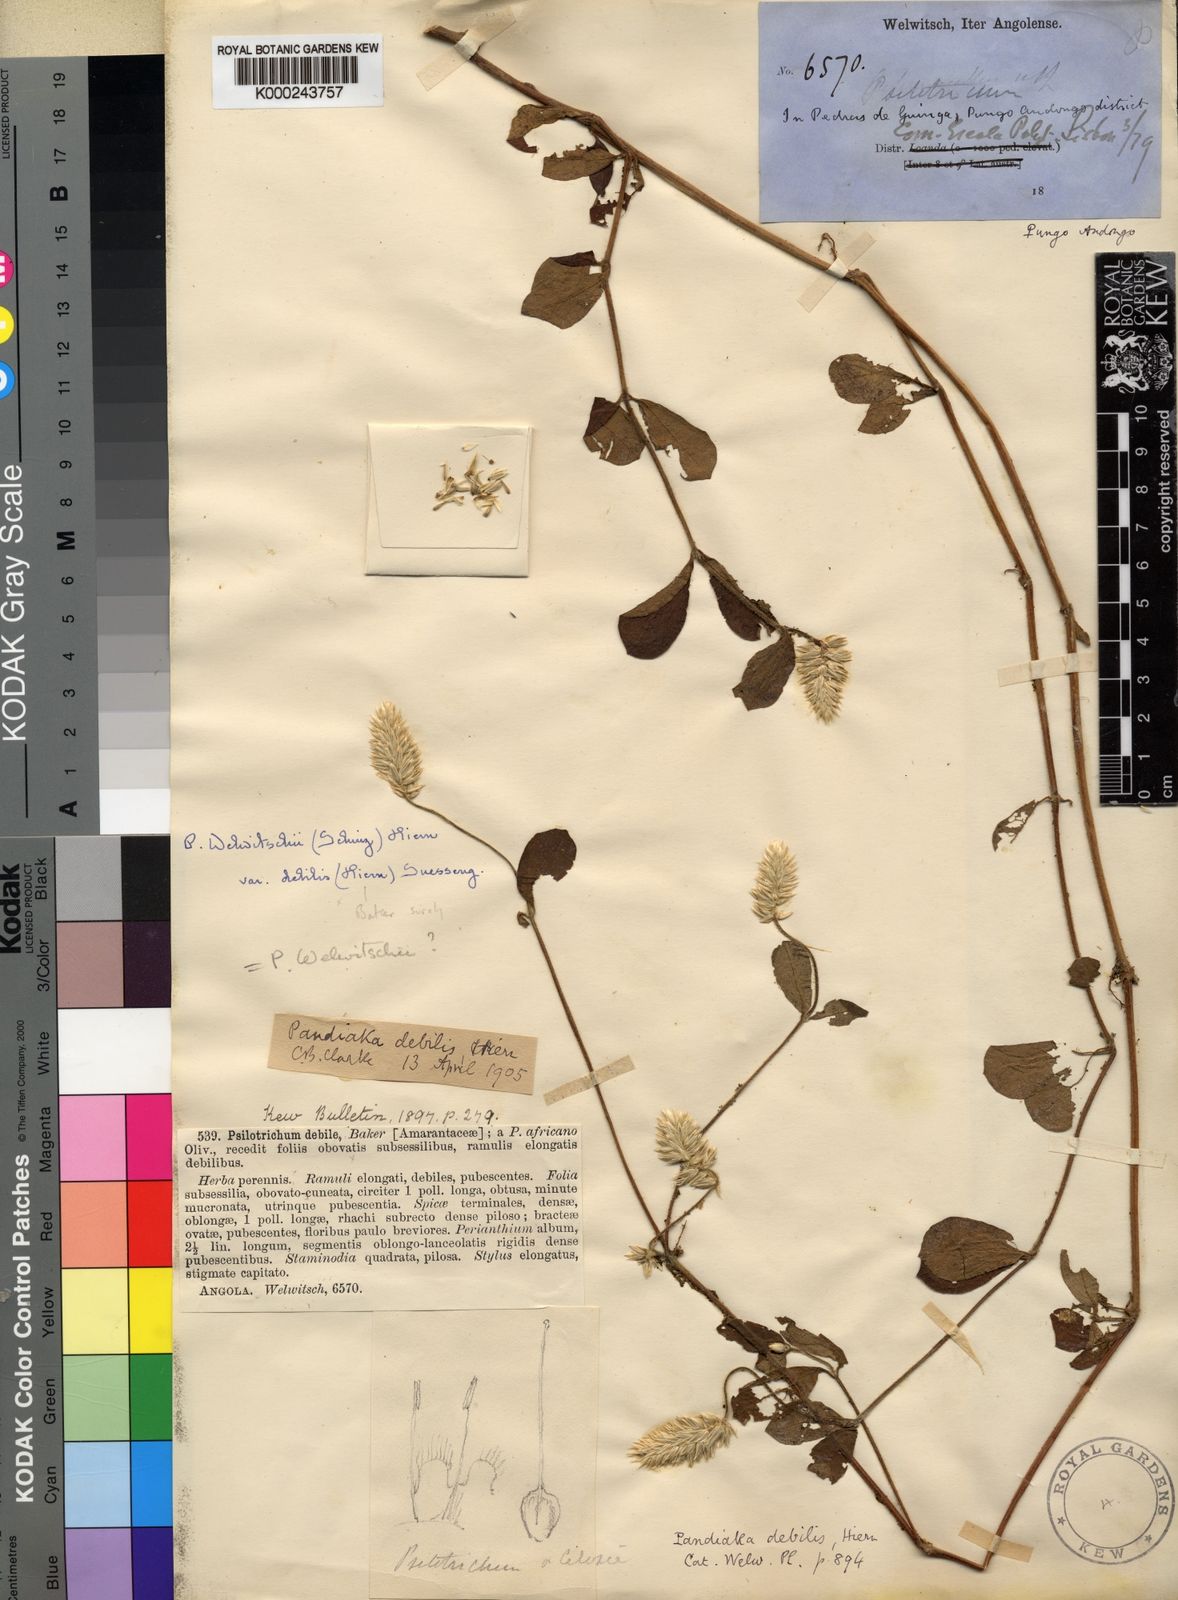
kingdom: Plantae
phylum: Tracheophyta
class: Magnoliopsida
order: Caryophyllales
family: Amaranthaceae
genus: Pandiaka
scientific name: Pandiaka welwitschii
